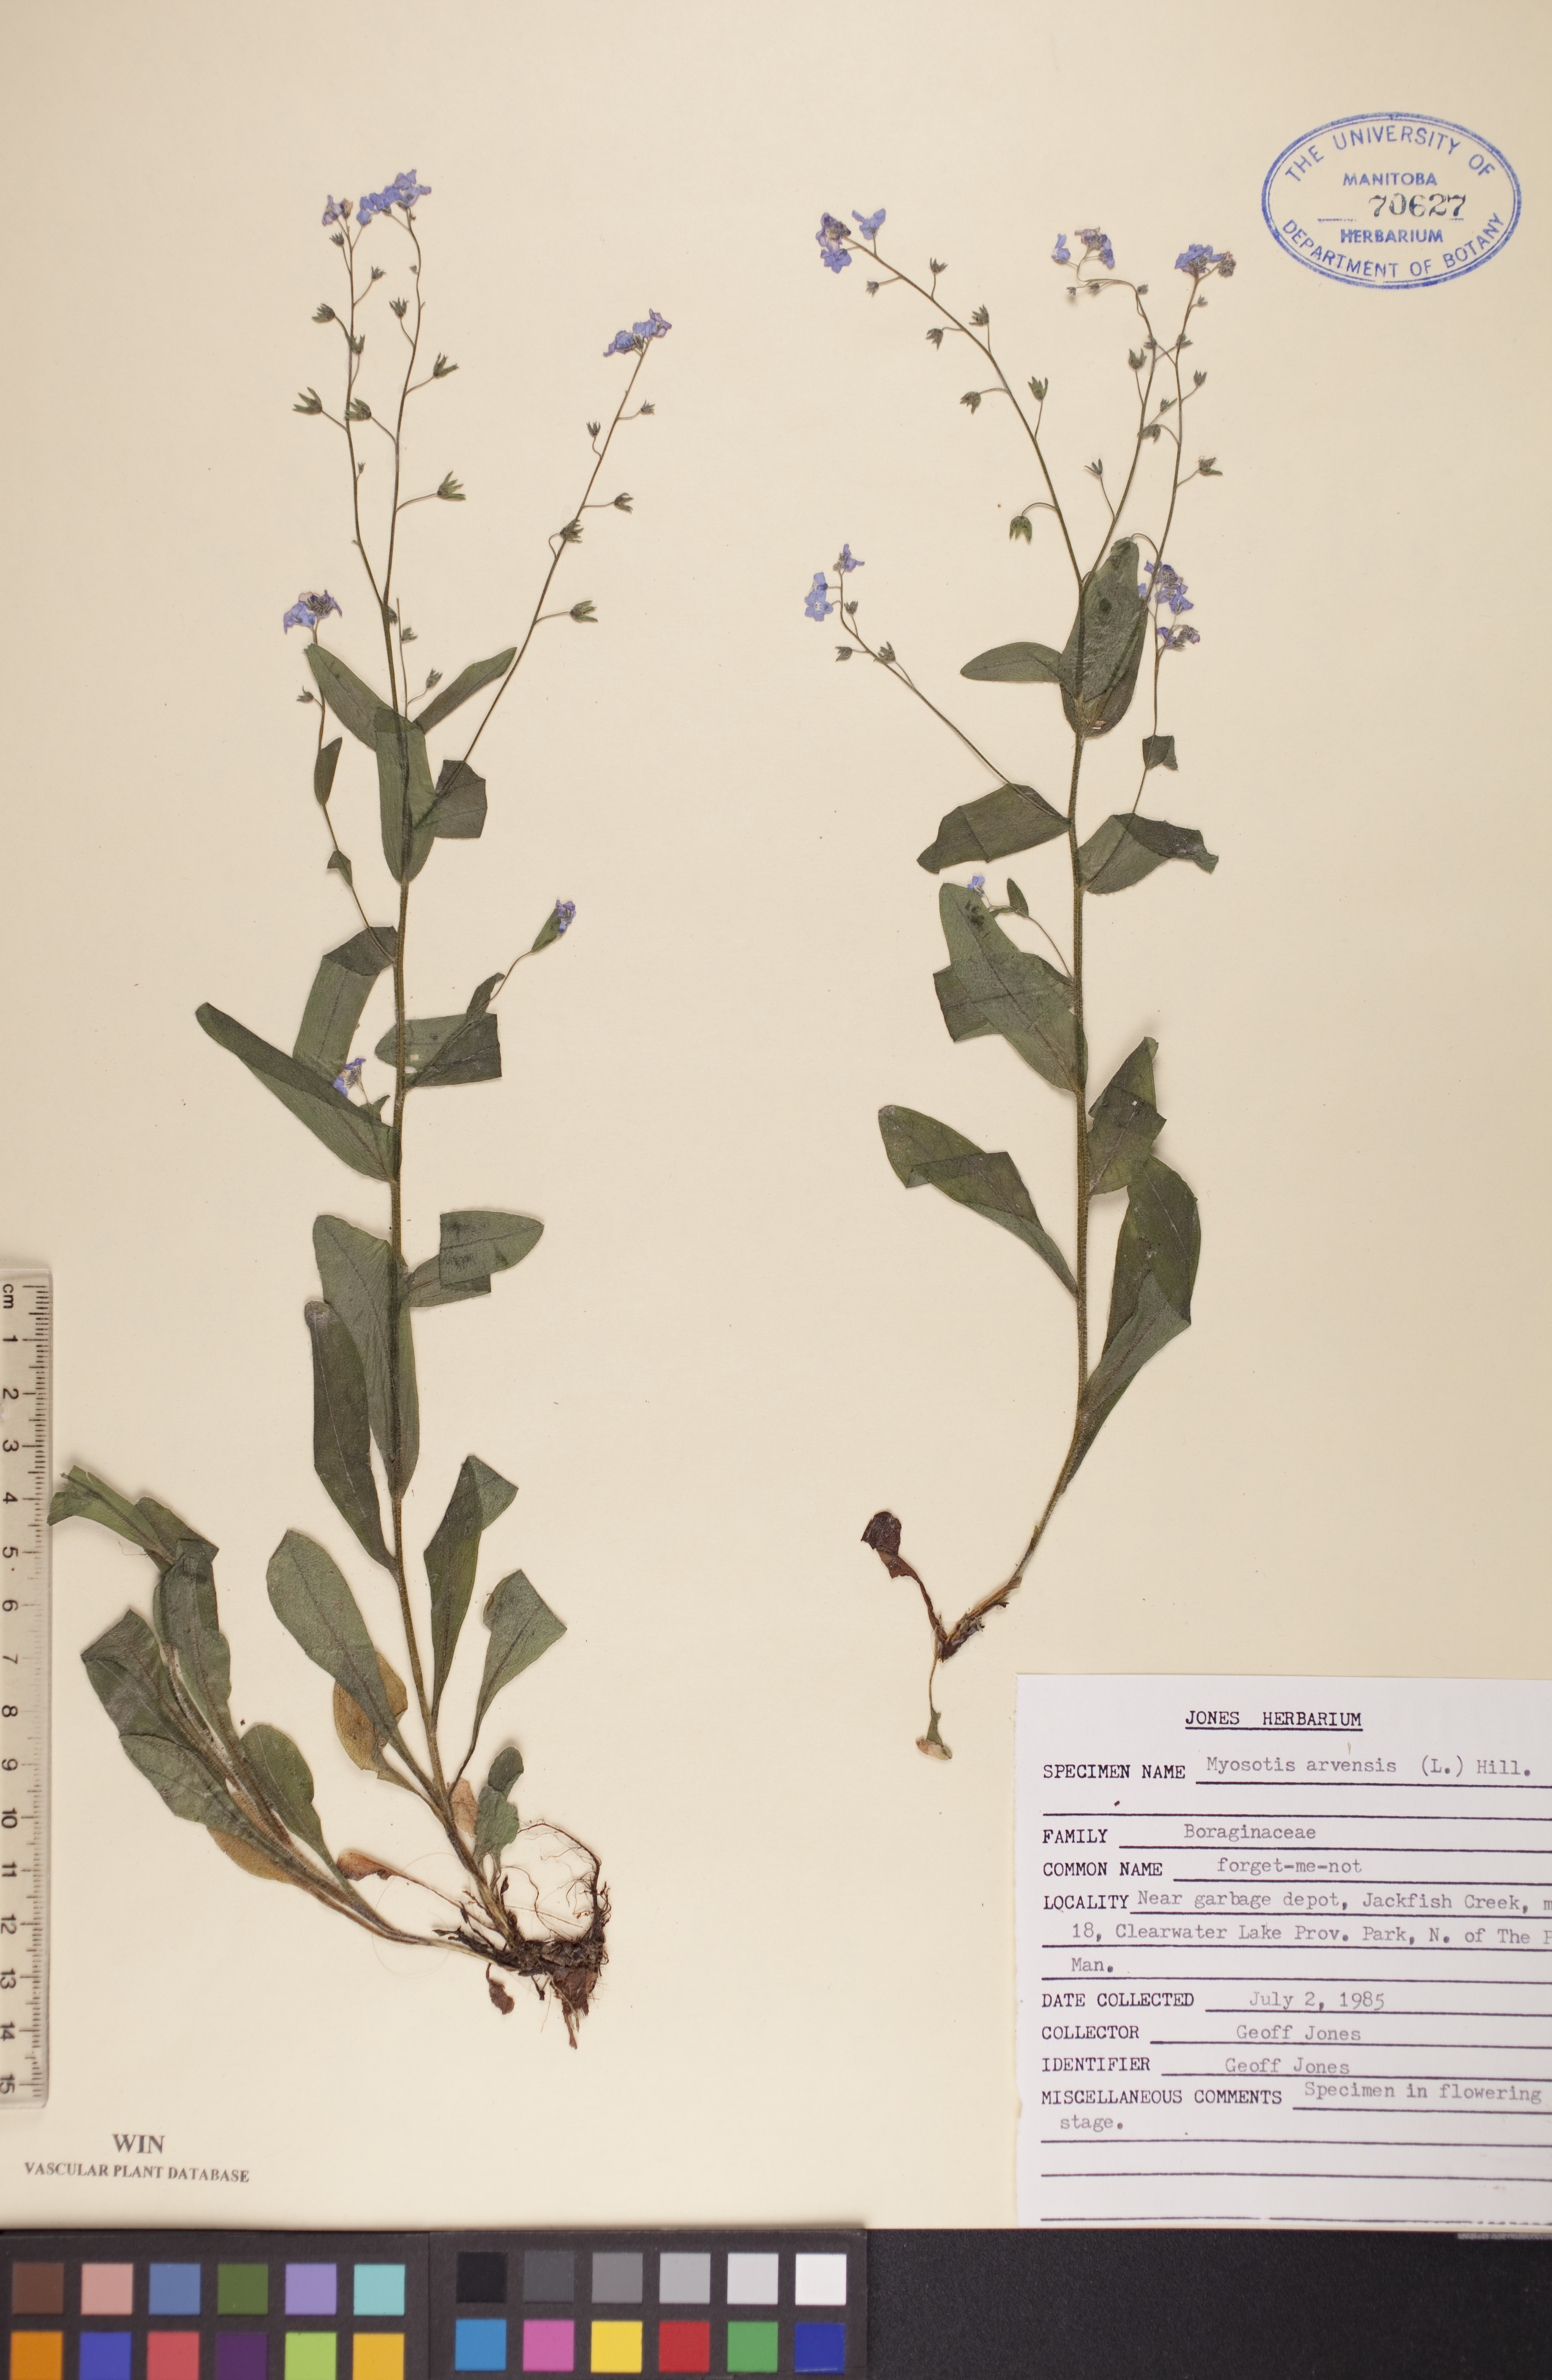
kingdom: Plantae
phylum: Tracheophyta
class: Magnoliopsida
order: Boraginales
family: Boraginaceae
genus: Myosotis
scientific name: Myosotis arvensis
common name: Field forget-me-not
